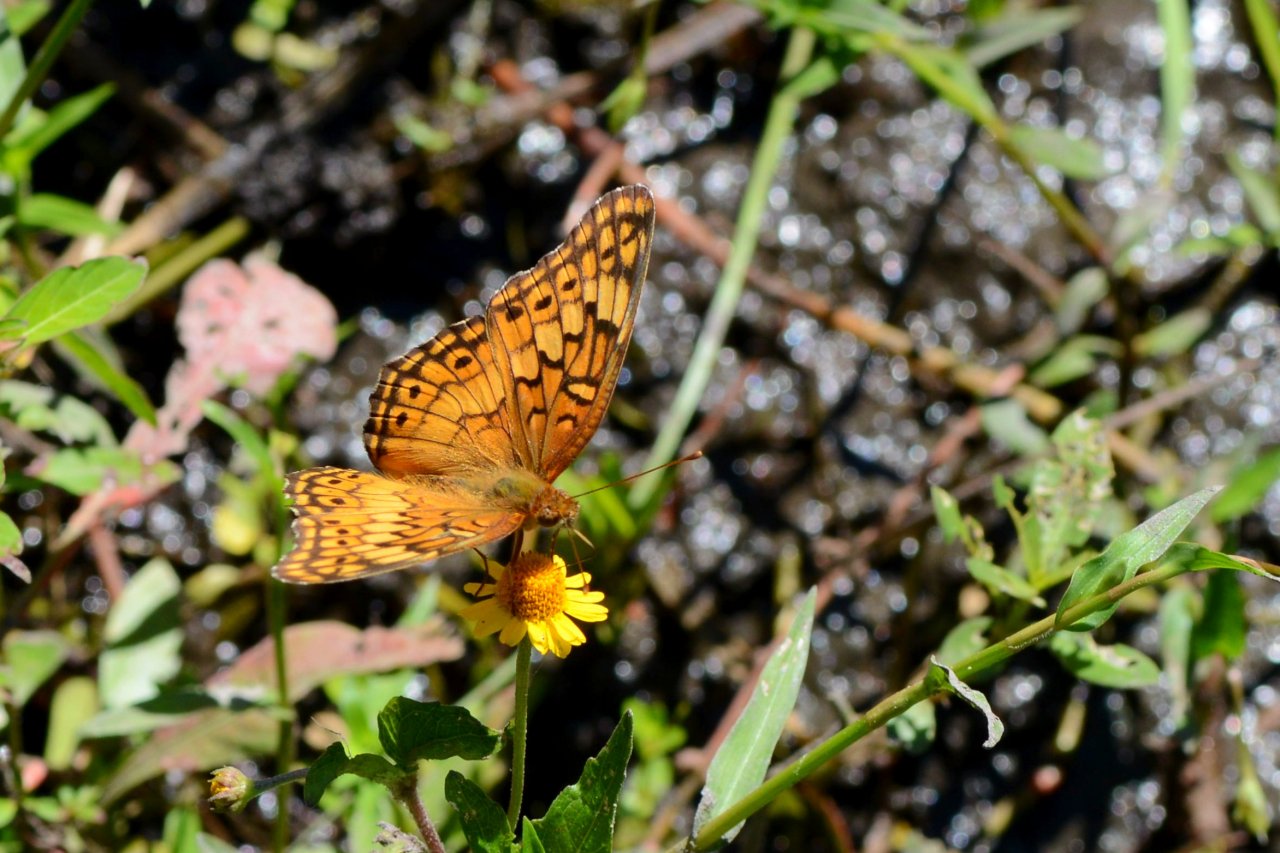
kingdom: Animalia
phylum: Arthropoda
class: Insecta
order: Lepidoptera
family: Nymphalidae
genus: Euptoieta
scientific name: Euptoieta claudia
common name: Variegated Fritillary
